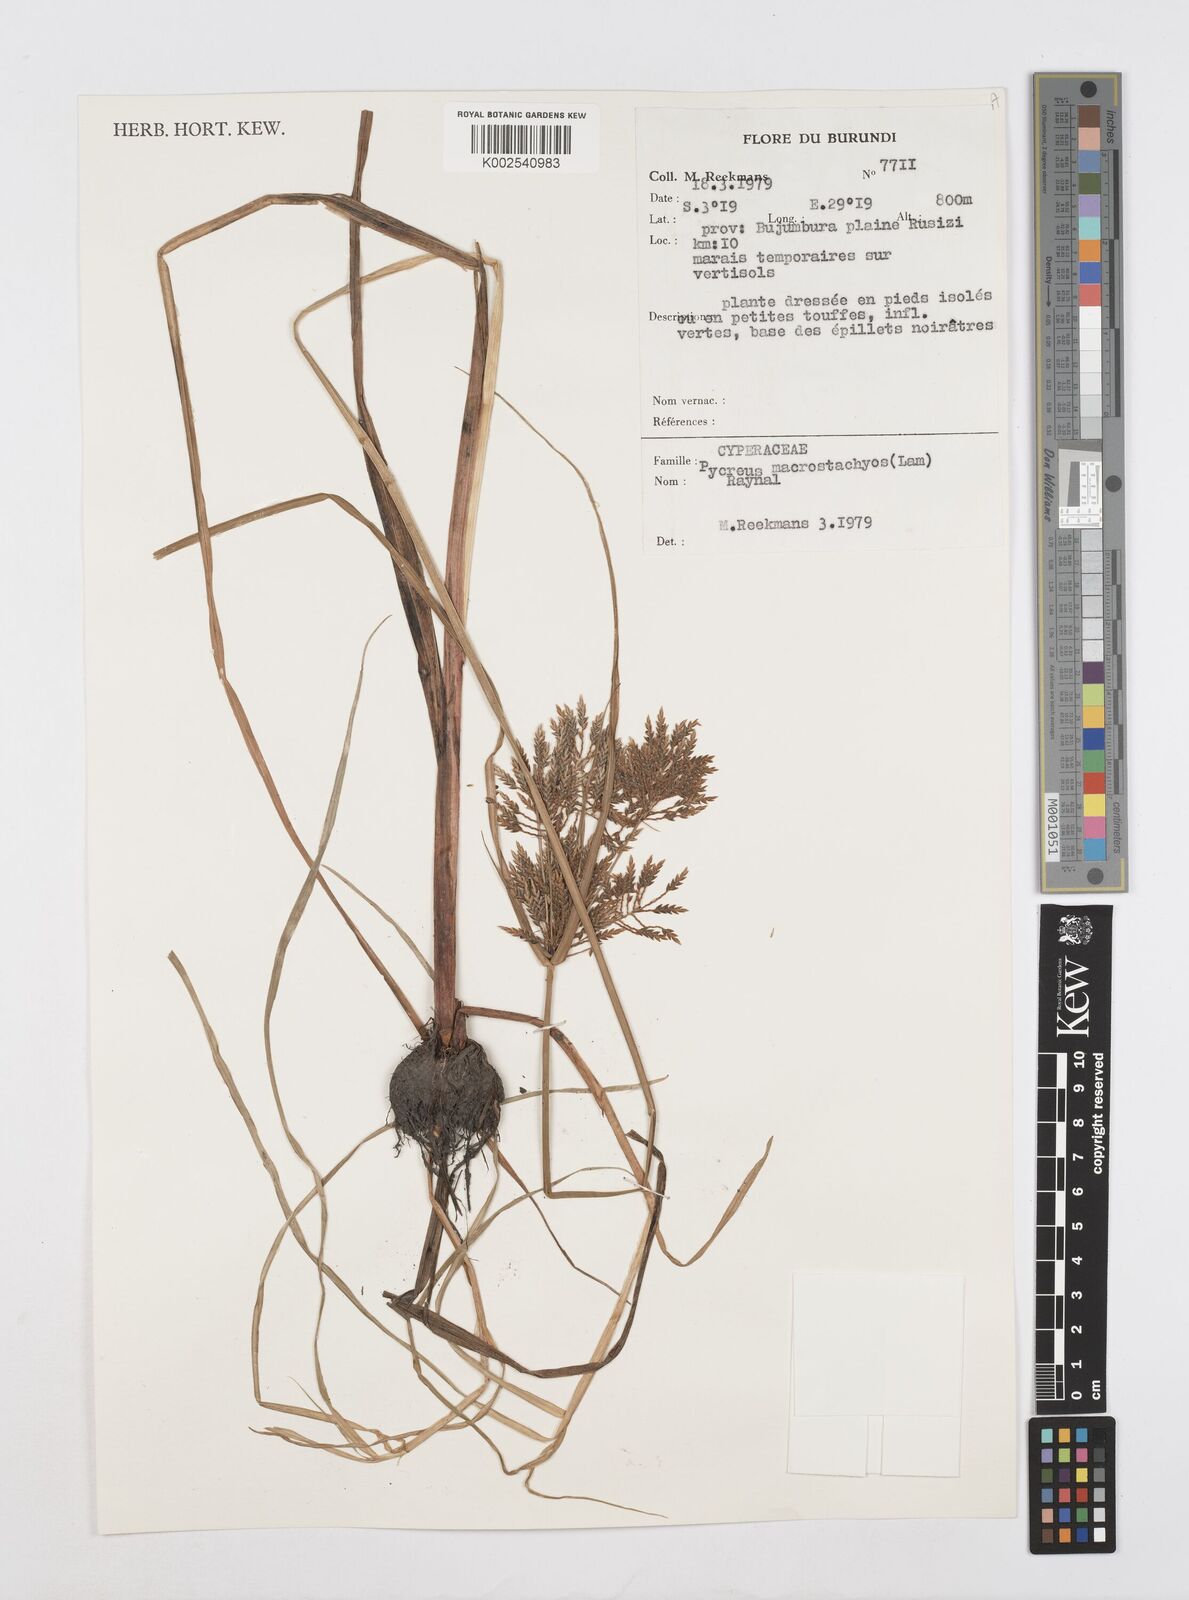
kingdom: Plantae
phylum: Tracheophyta
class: Liliopsida
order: Poales
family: Cyperaceae
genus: Cyperus
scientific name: Cyperus macrostachyos
